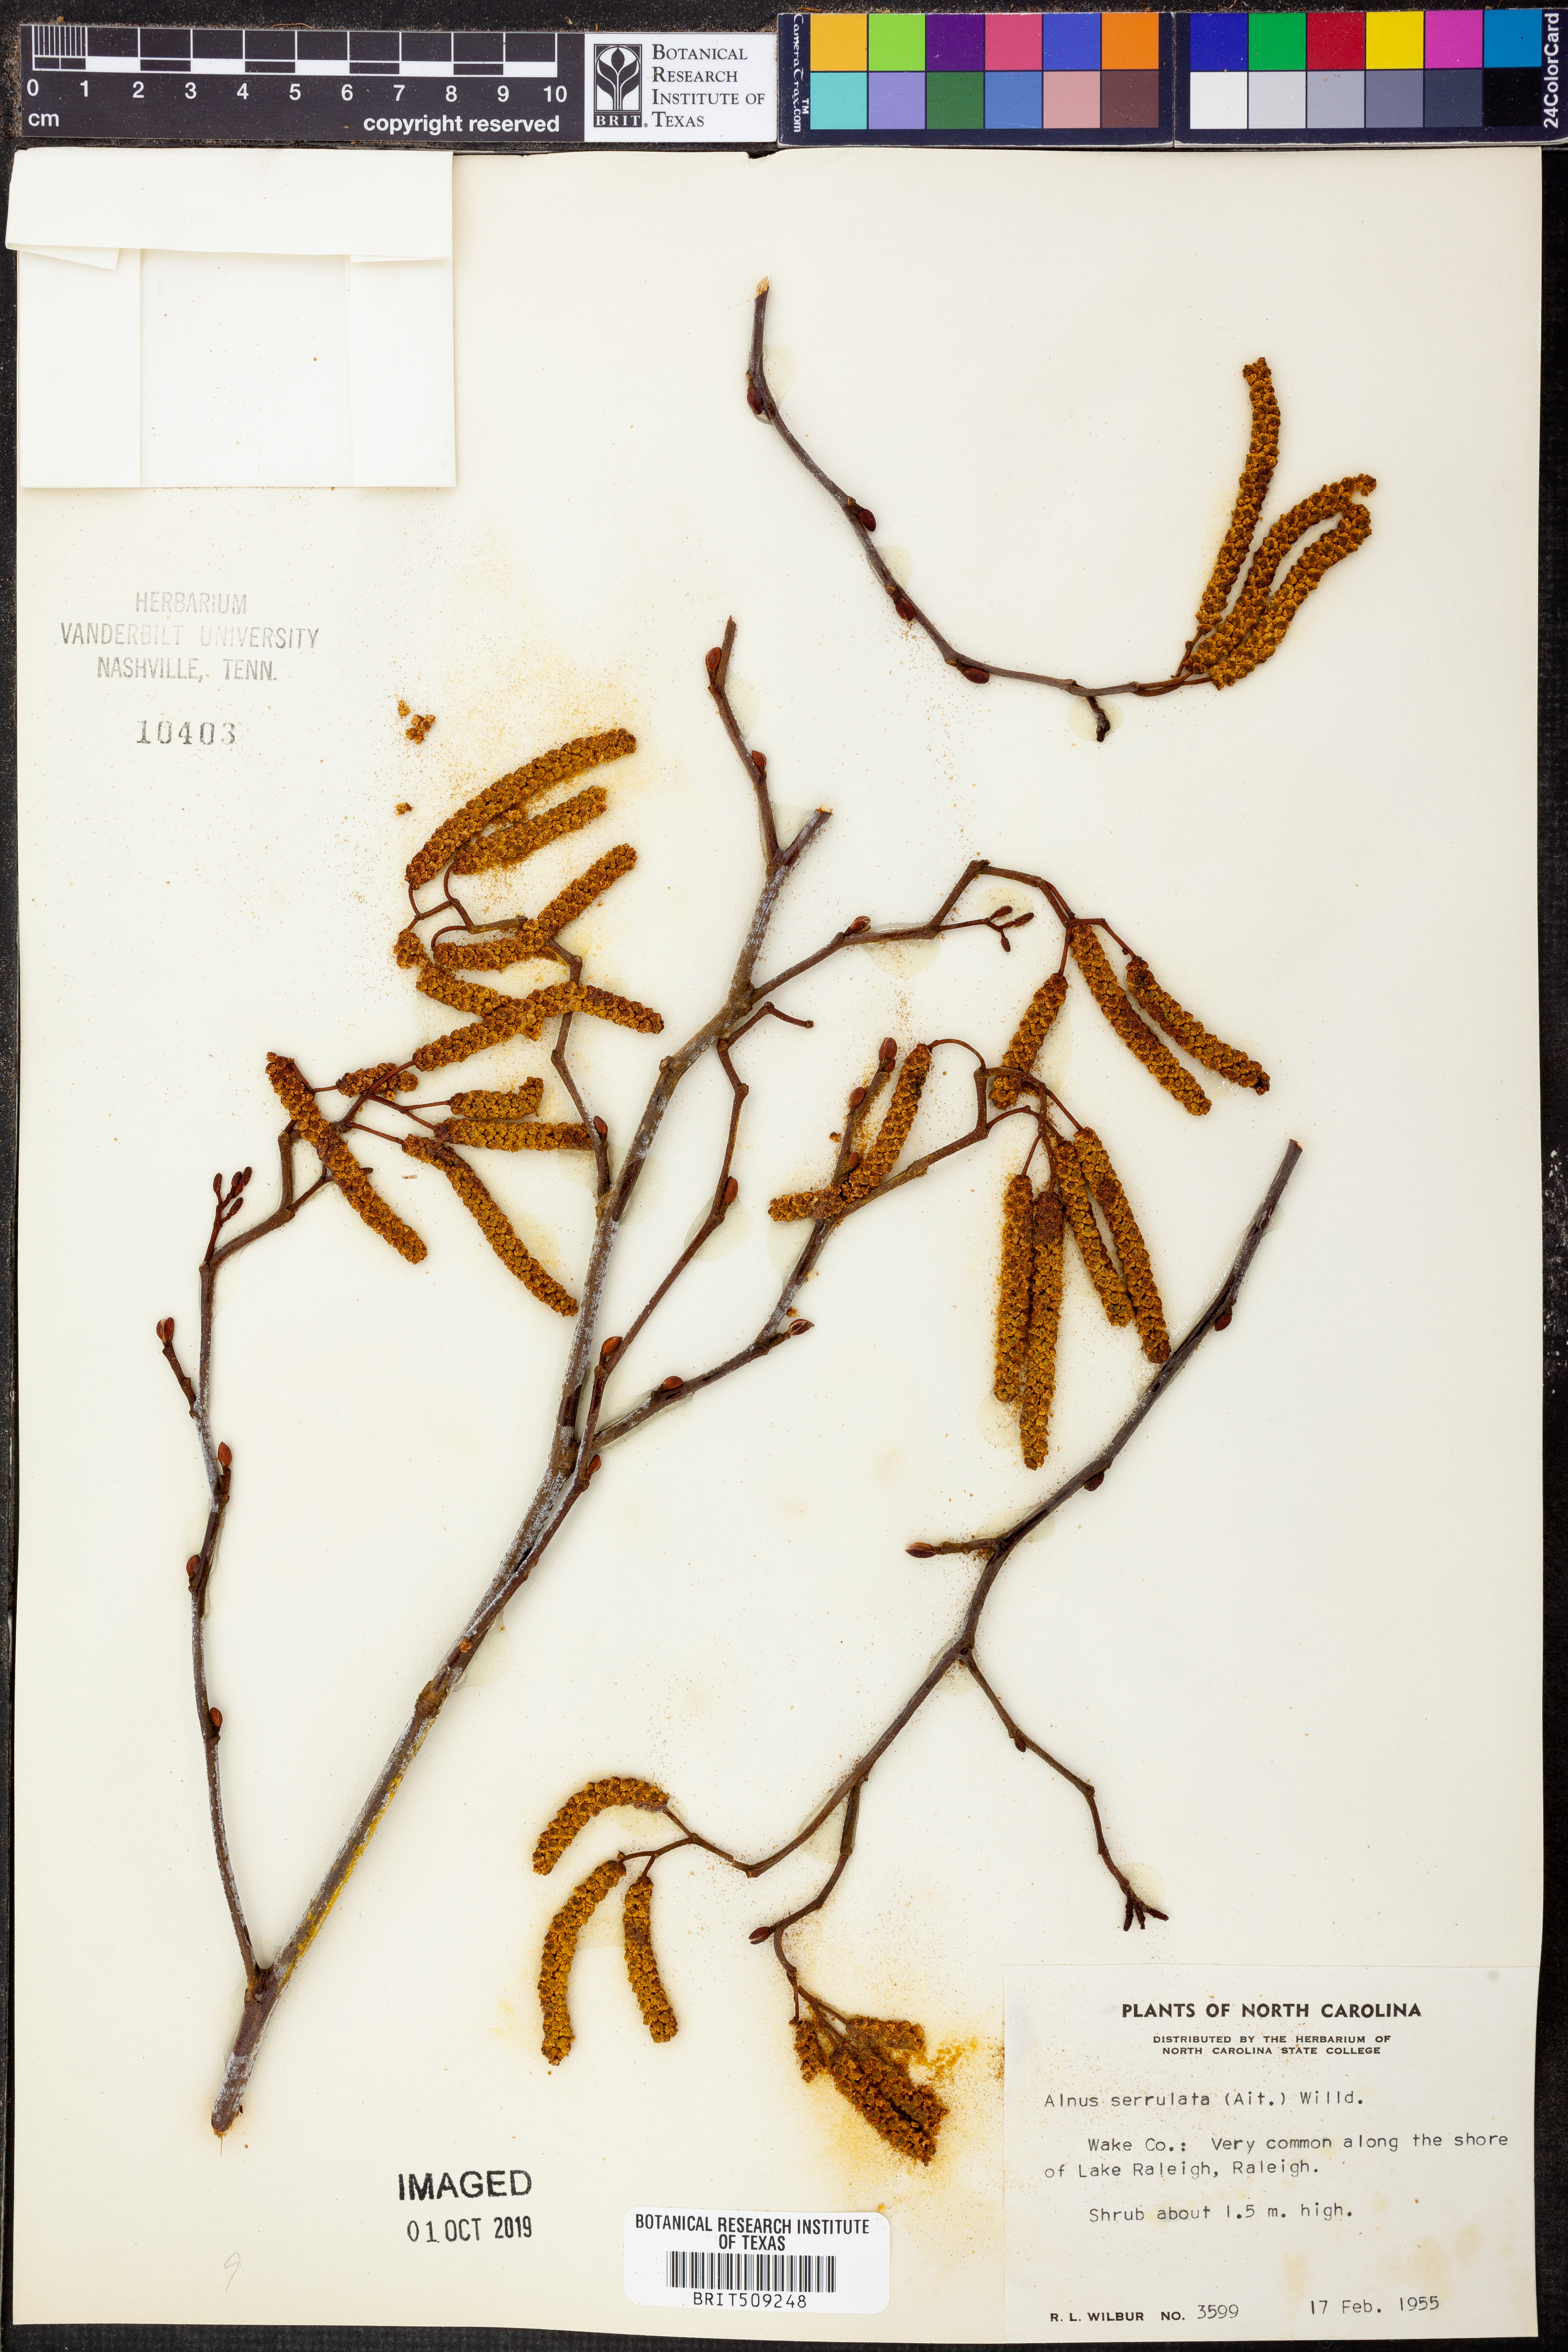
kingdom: Plantae
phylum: Tracheophyta
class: Magnoliopsida
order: Fagales
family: Betulaceae
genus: Alnus
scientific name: Alnus serrulata
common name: Hazel alder
